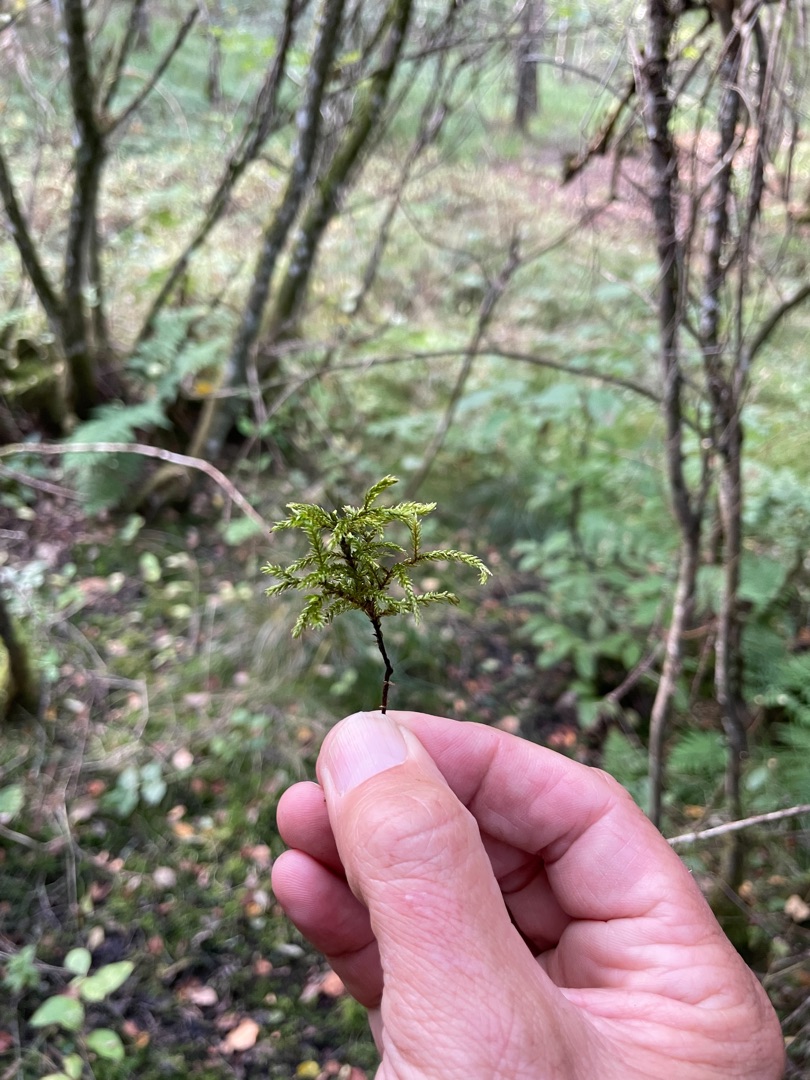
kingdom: Plantae
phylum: Bryophyta
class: Bryopsida
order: Hypnales
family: Climaciaceae
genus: Climacium
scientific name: Climacium dendroides
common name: Stor engkost
